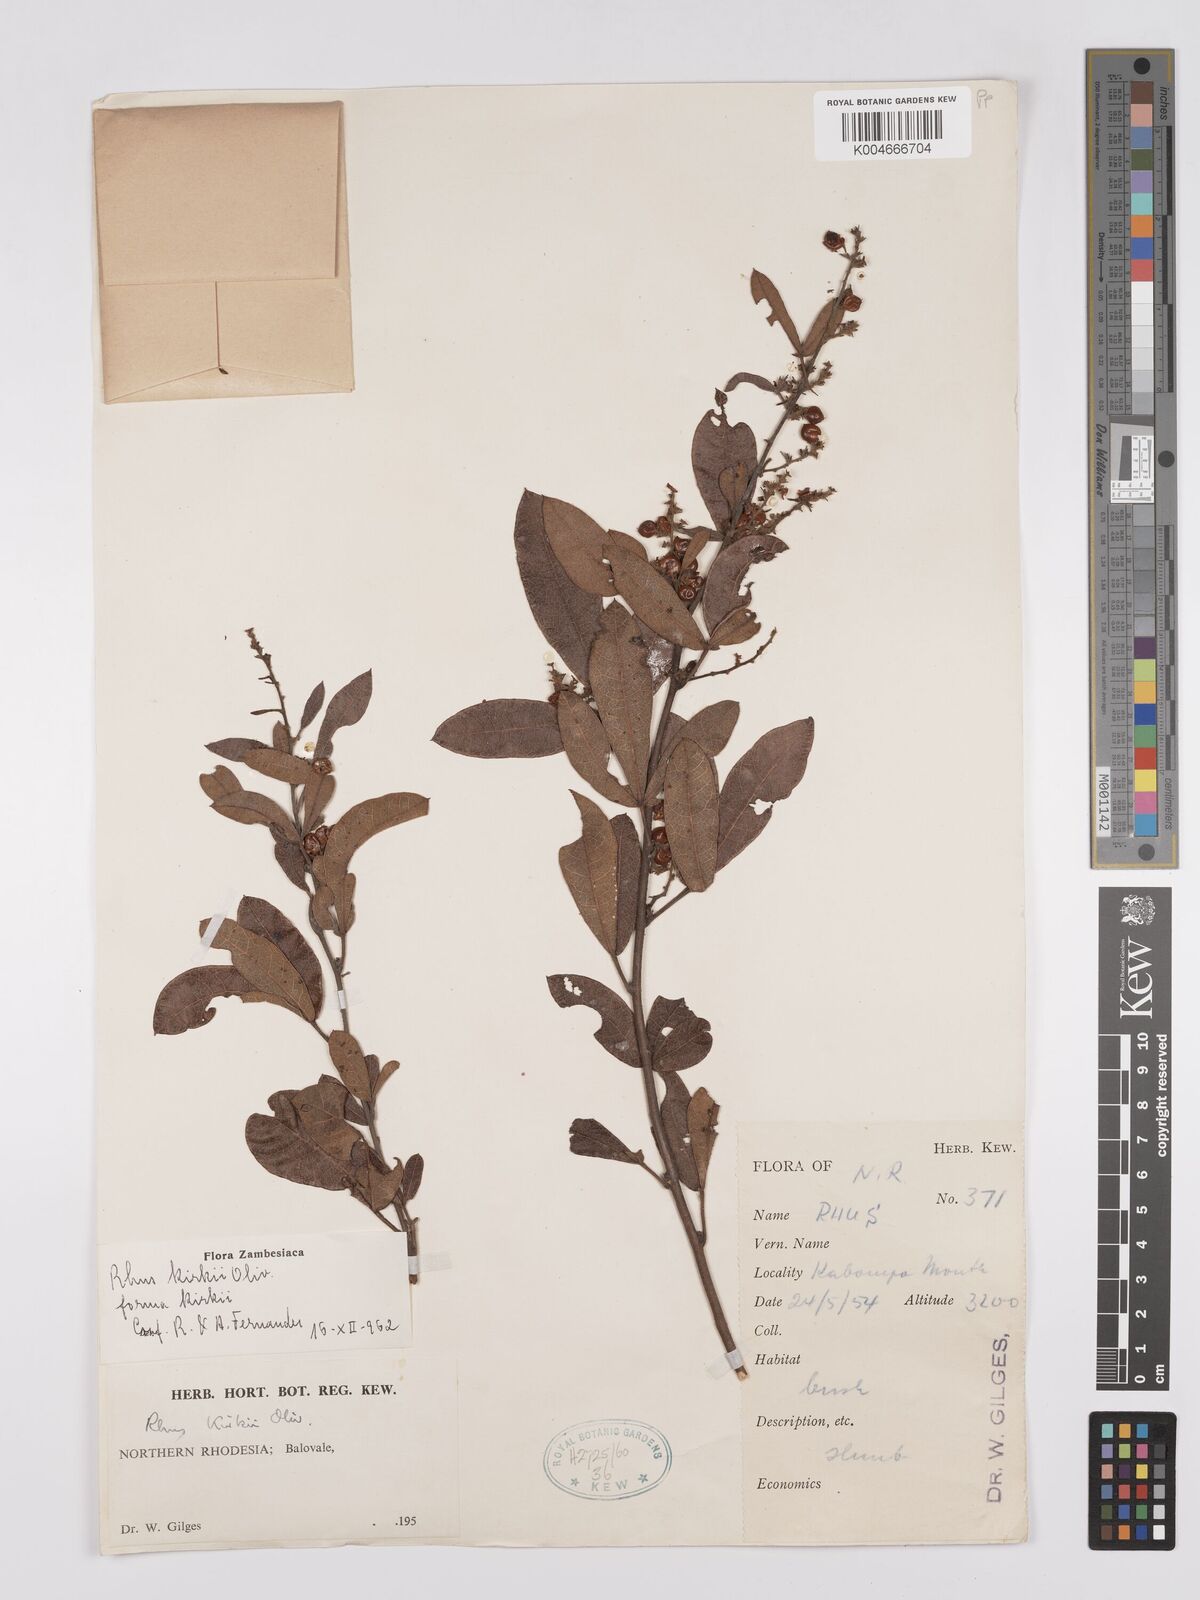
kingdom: Plantae
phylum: Tracheophyta
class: Magnoliopsida
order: Sapindales
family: Anacardiaceae
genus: Searsia
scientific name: Searsia kirkii
